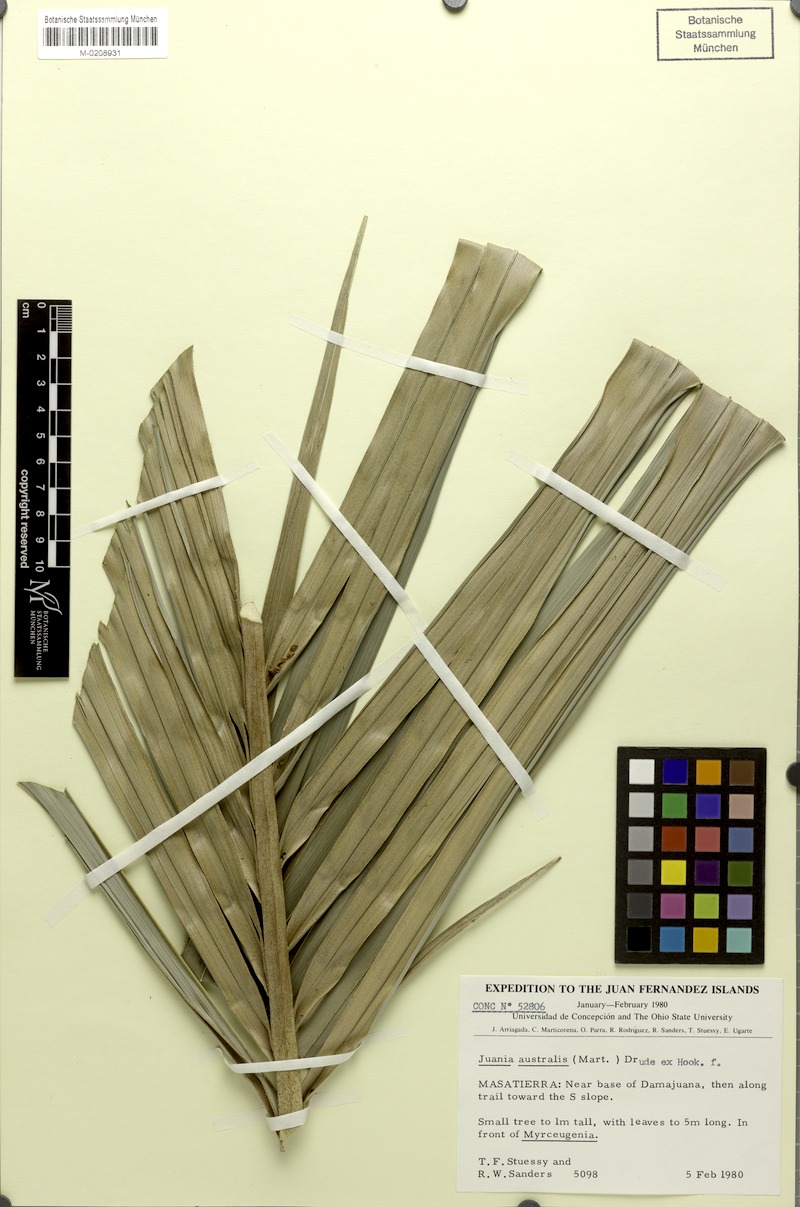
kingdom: Plantae
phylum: Tracheophyta
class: Liliopsida
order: Arecales
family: Arecaceae
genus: Juania
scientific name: Juania australis
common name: Chonta palm
